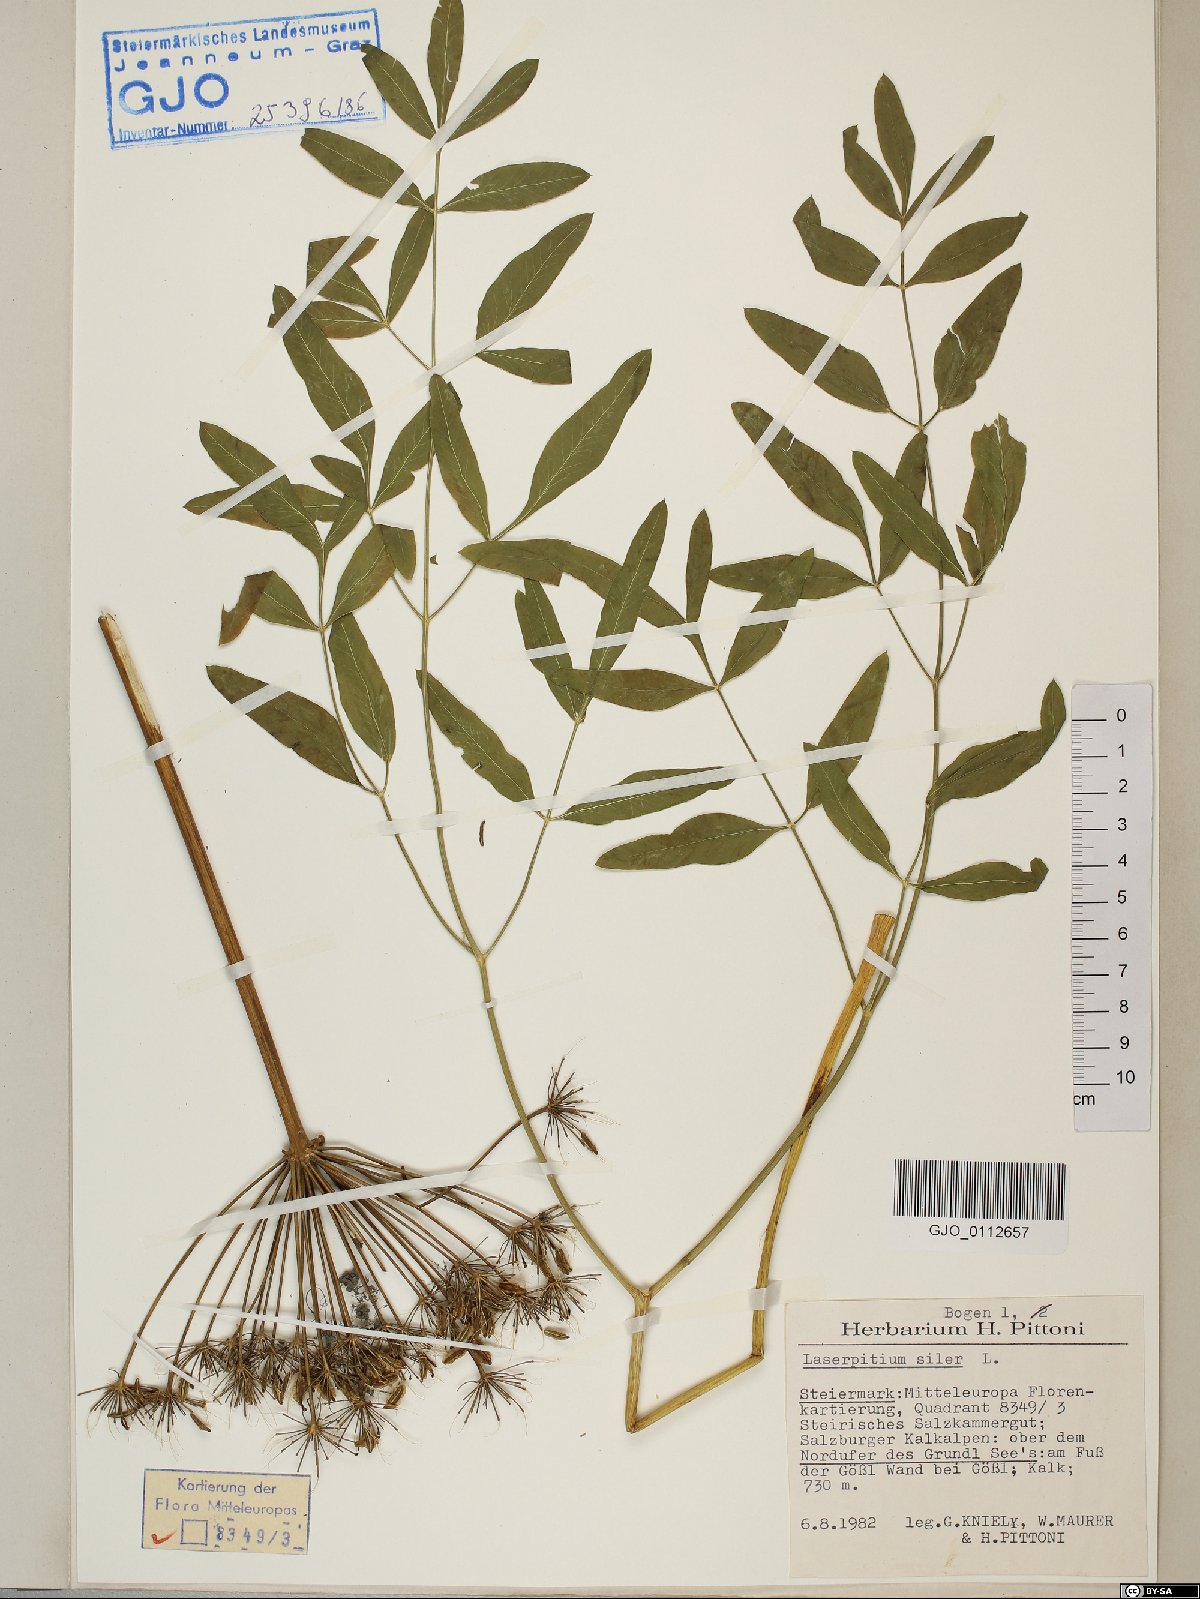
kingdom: Plantae
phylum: Tracheophyta
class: Magnoliopsida
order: Apiales
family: Apiaceae
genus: Siler
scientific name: Siler montanum
